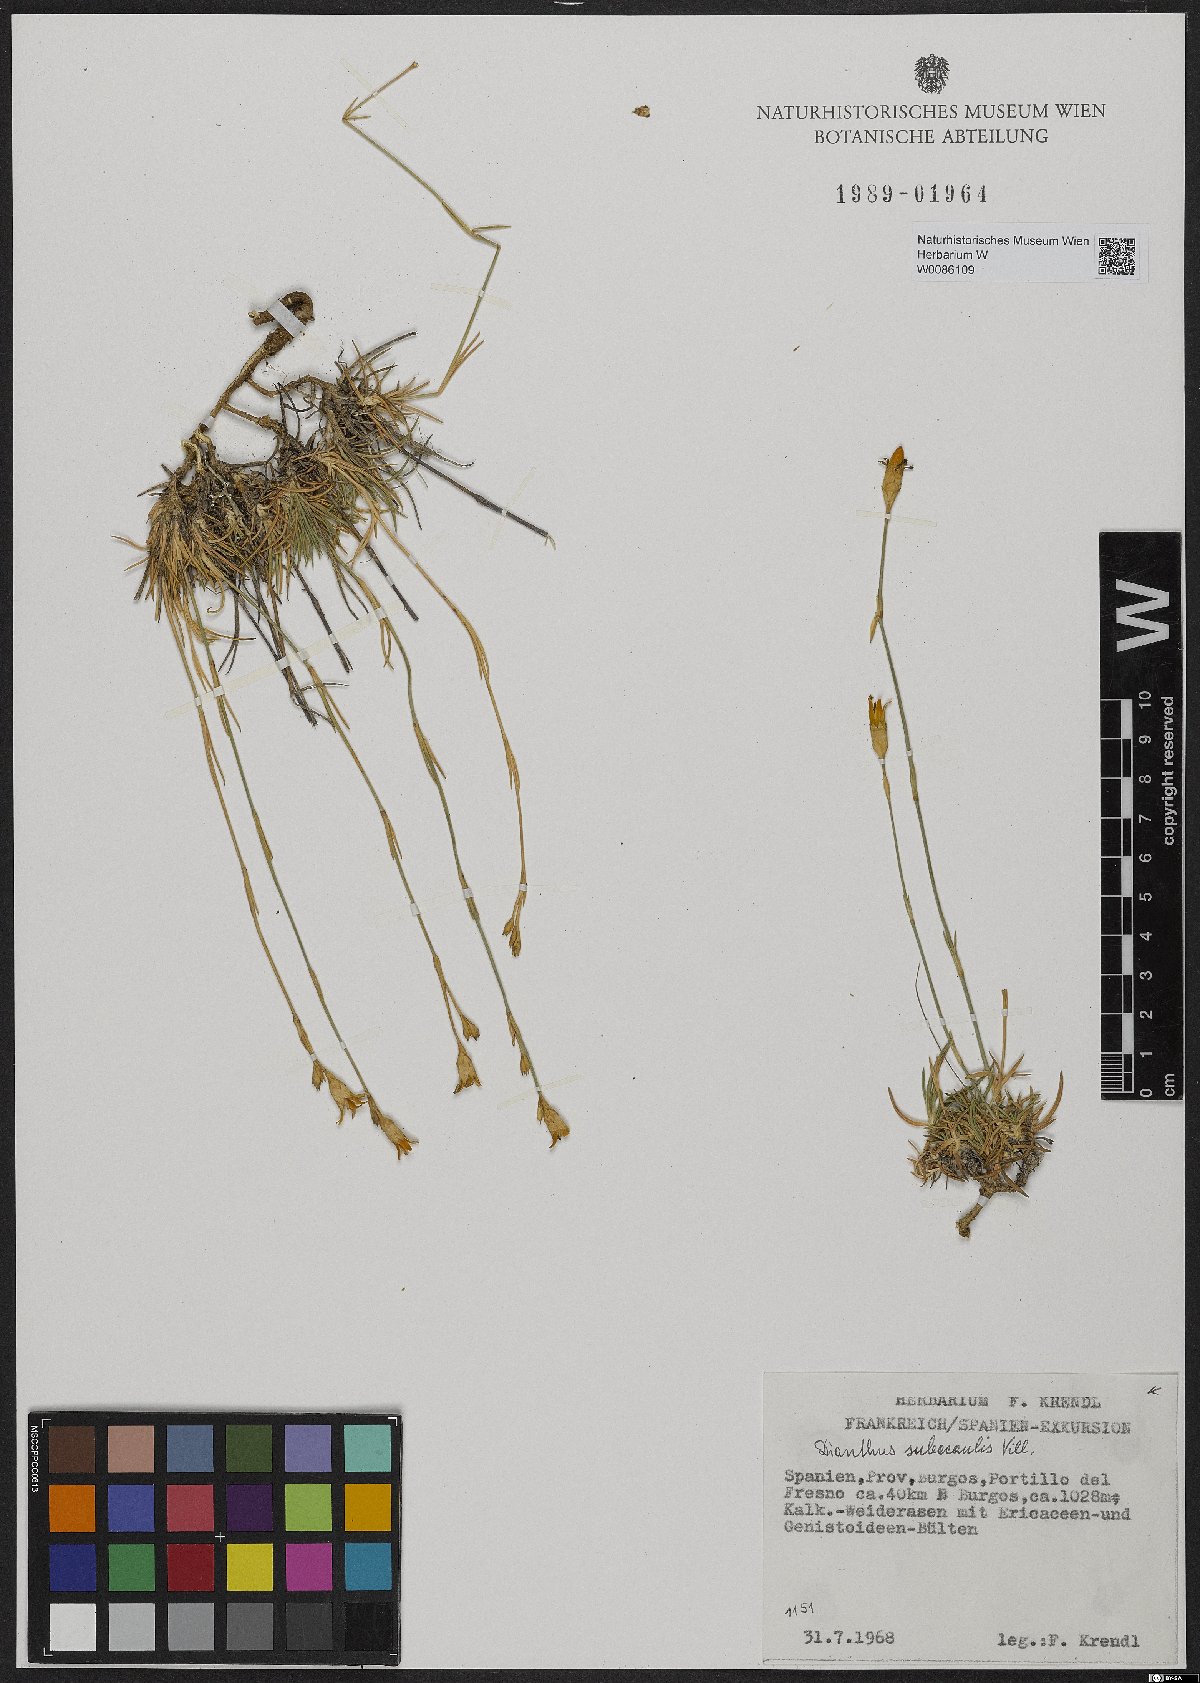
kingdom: Plantae
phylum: Tracheophyta
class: Magnoliopsida
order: Caryophyllales
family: Caryophyllaceae
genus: Dianthus
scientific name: Dianthus subacaulis
